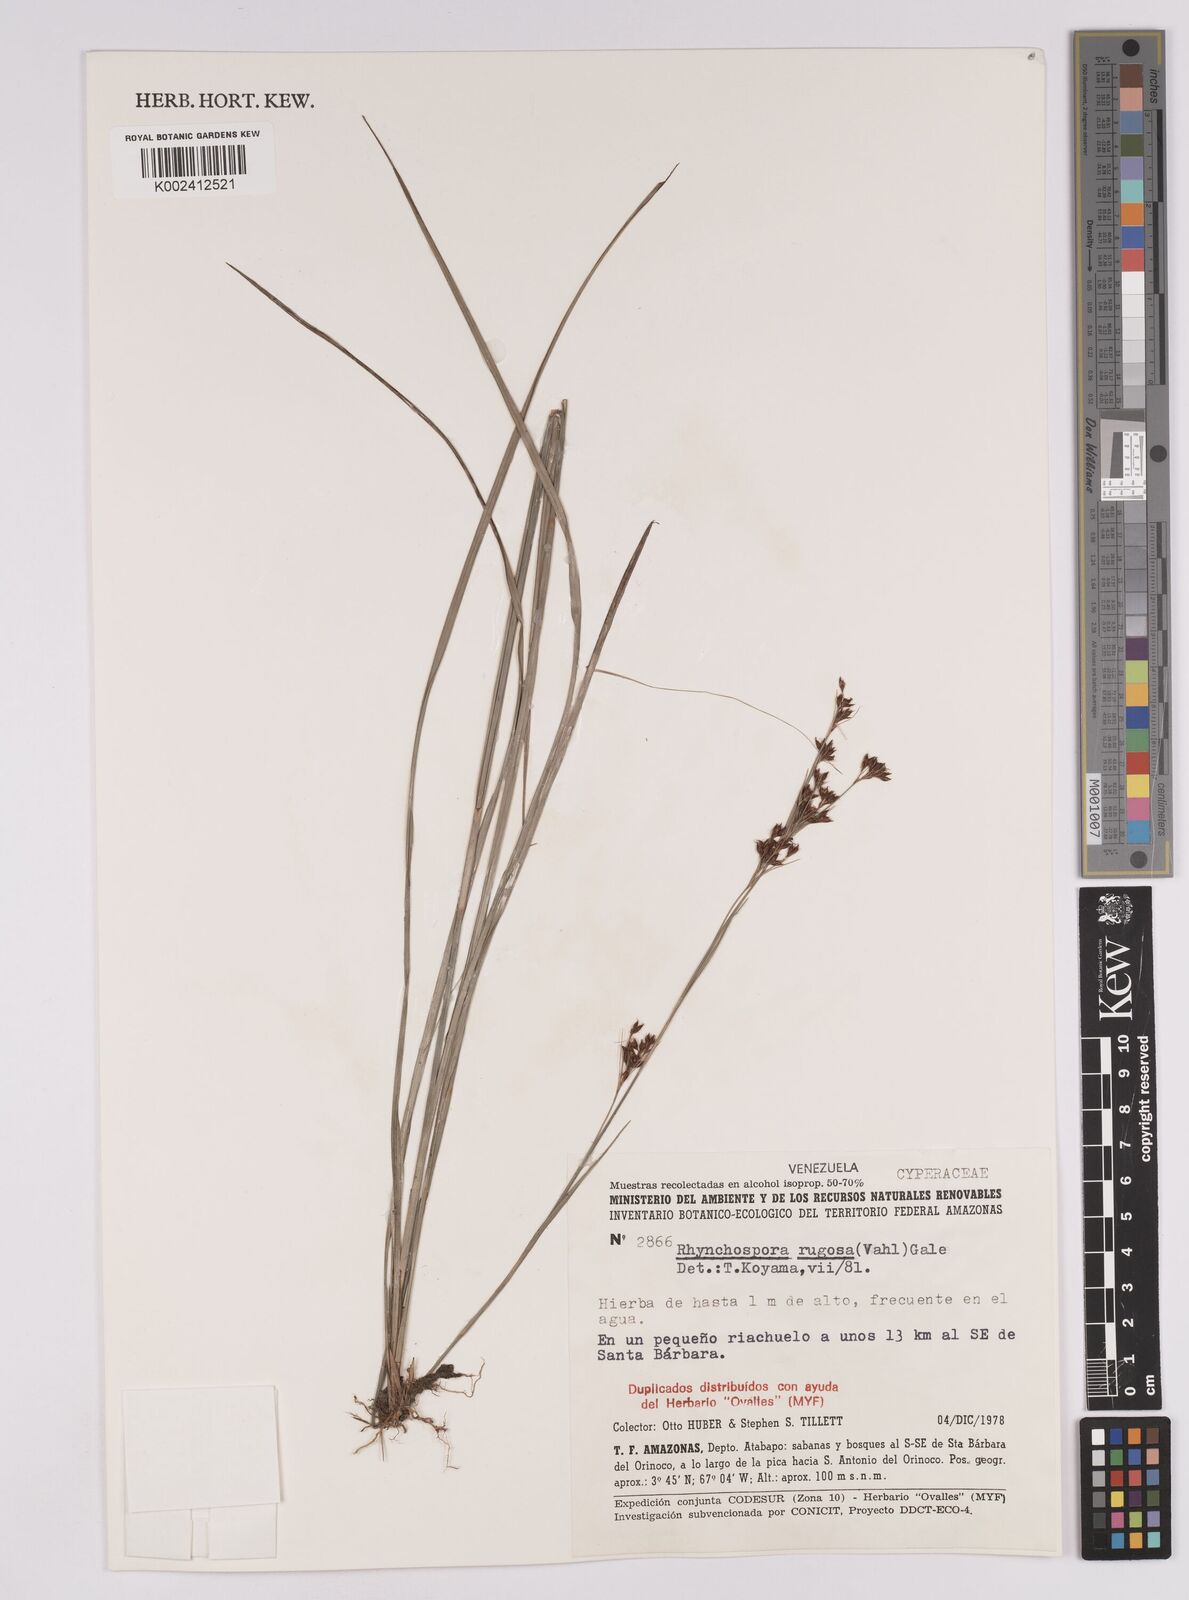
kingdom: Plantae
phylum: Tracheophyta
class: Liliopsida
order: Poales
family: Cyperaceae
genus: Rhynchospora
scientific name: Rhynchospora rugosa
